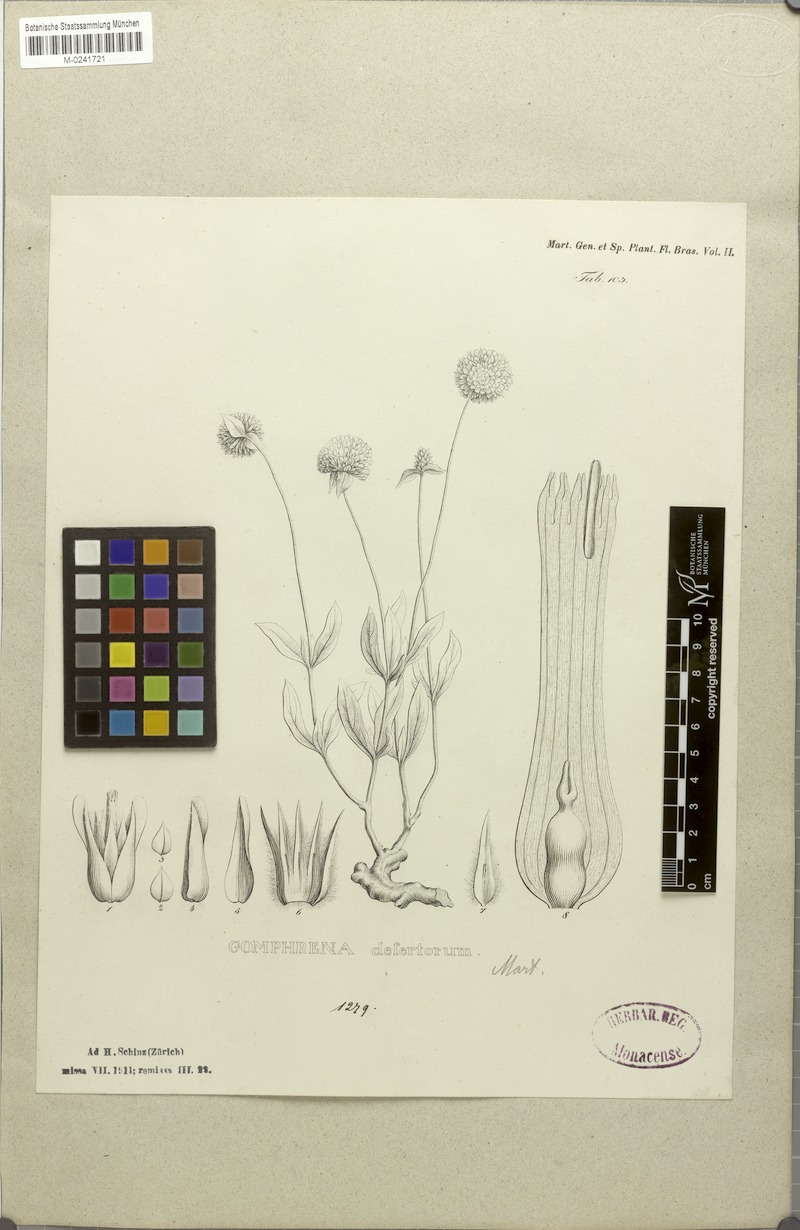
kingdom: Plantae
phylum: Tracheophyta
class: Magnoliopsida
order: Caryophyllales
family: Amaranthaceae
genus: Gomphrena
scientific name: Gomphrena desertorum
